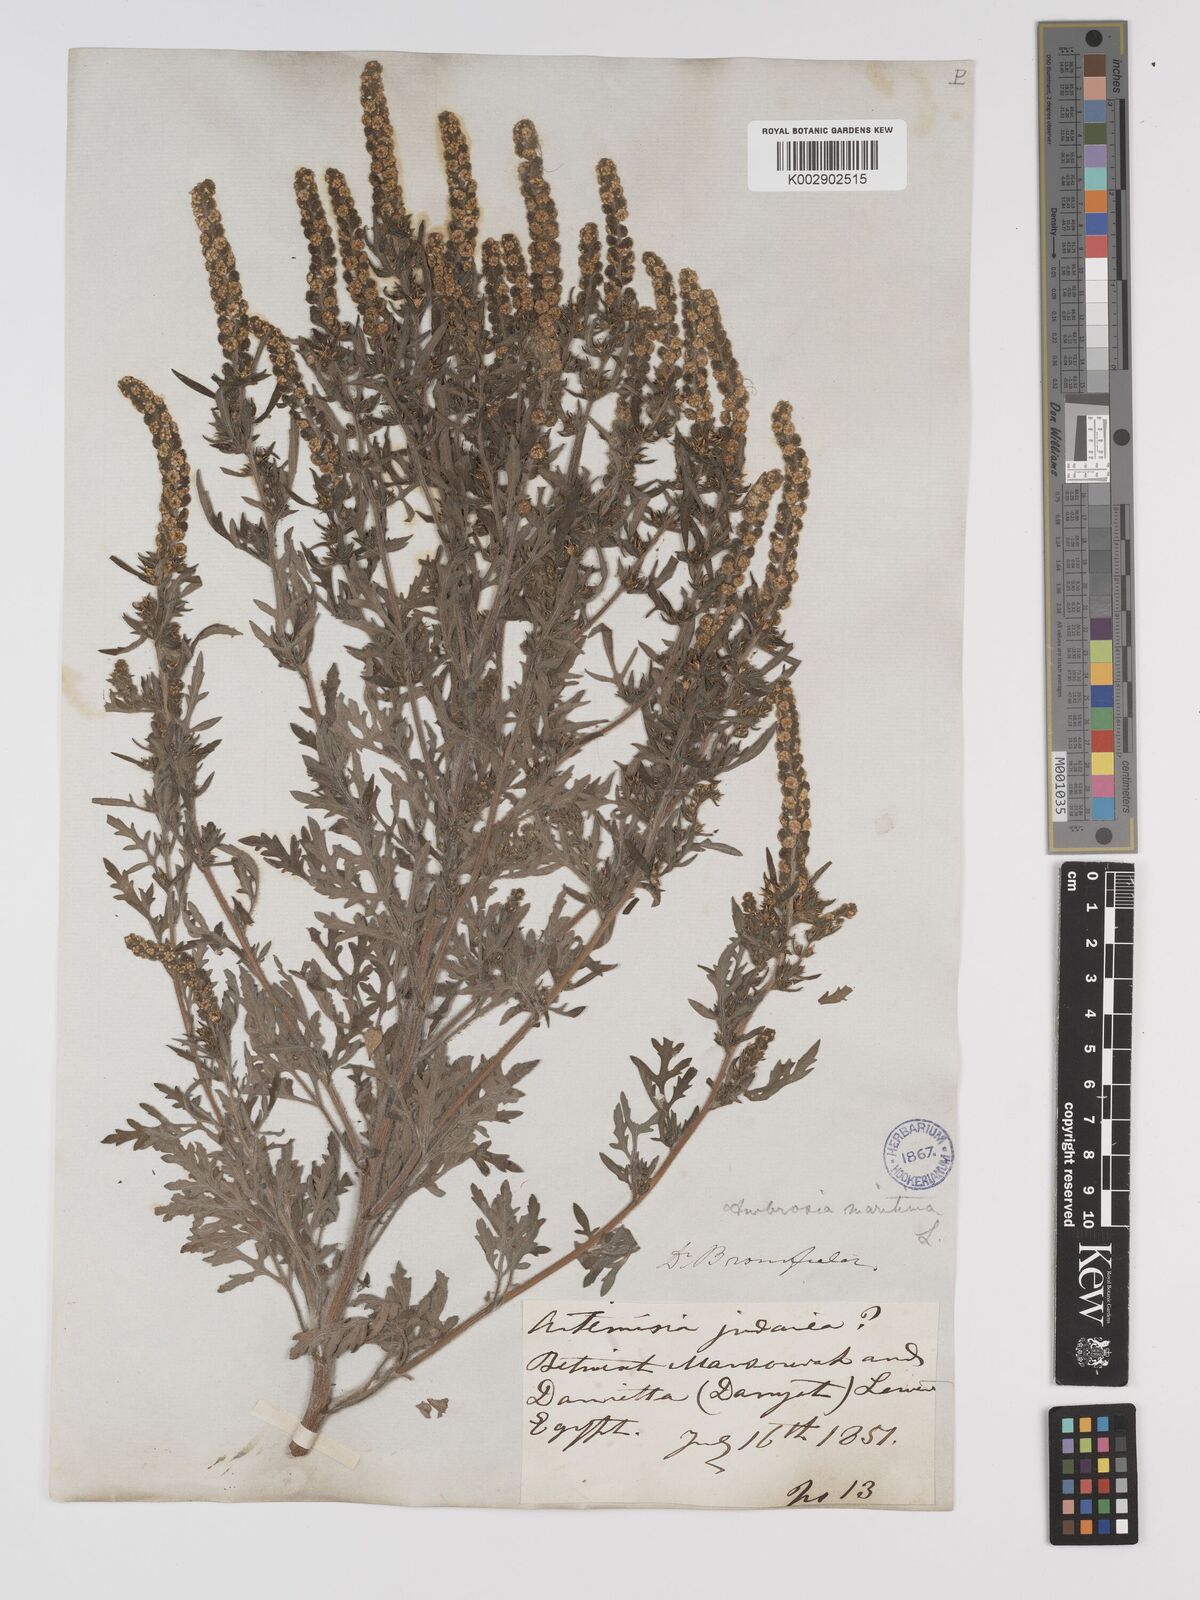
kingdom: Plantae
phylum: Tracheophyta
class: Magnoliopsida
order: Asterales
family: Asteraceae
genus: Ambrosia
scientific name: Ambrosia maritima
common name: Sea ambrosia
